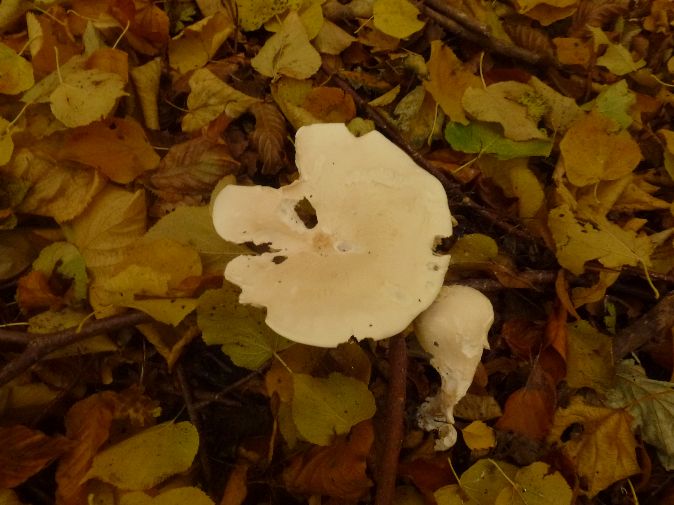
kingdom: Fungi
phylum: Basidiomycota
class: Agaricomycetes
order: Agaricales
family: Tricholomataceae
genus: Infundibulicybe
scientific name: Infundibulicybe geotropa
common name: stor tragthat
